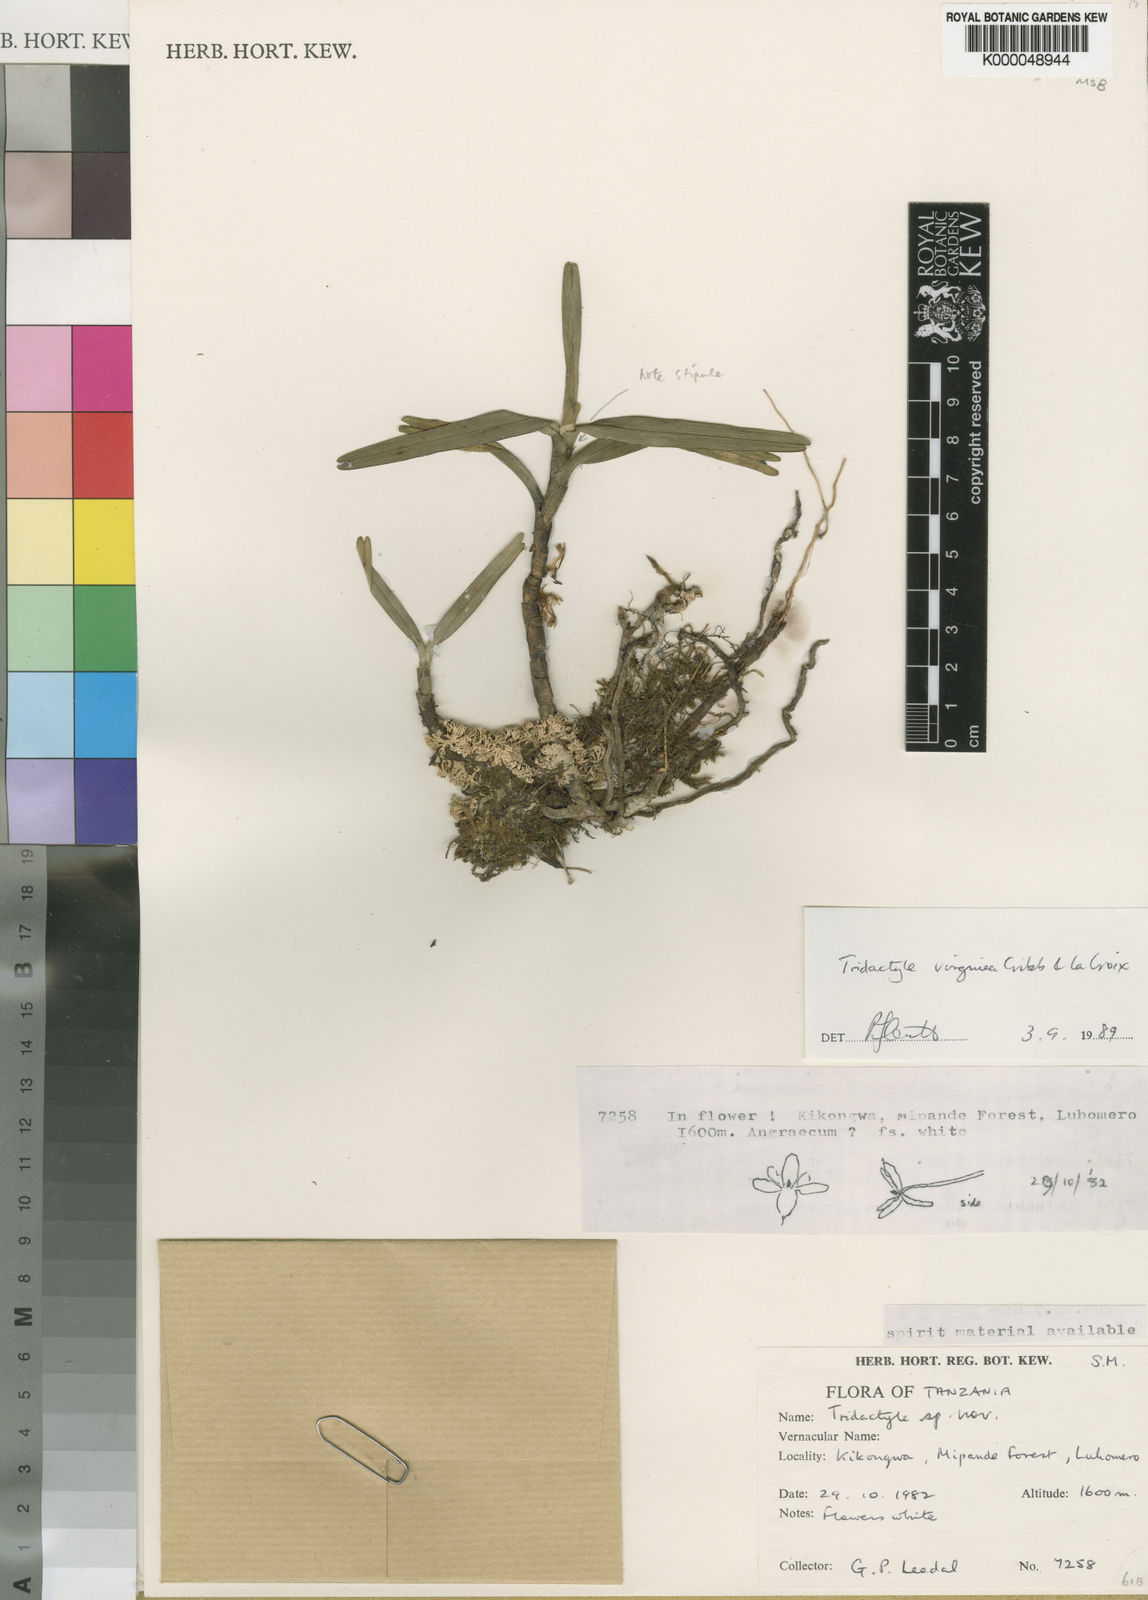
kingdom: Plantae
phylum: Tracheophyta
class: Liliopsida
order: Asparagales
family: Orchidaceae
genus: Tridactyle
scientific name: Tridactyle virginea
